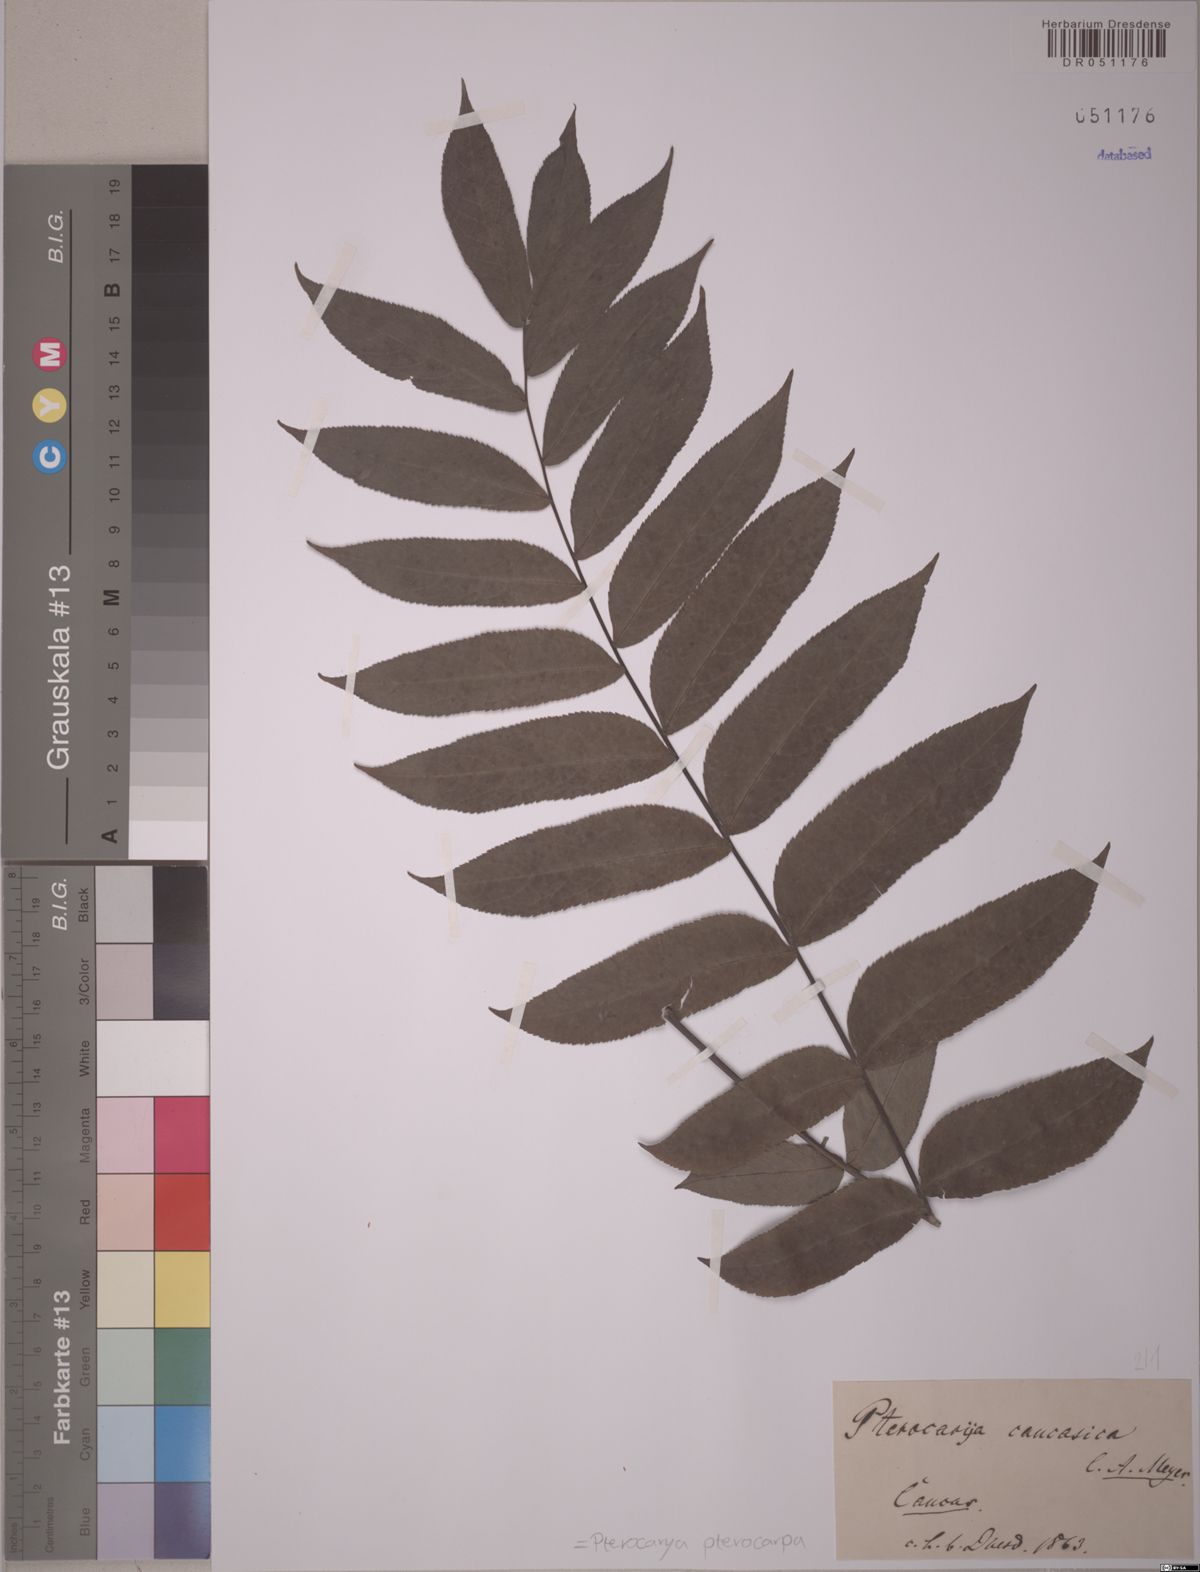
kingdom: Plantae
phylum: Tracheophyta
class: Magnoliopsida
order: Fagales
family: Juglandaceae
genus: Pterocarya
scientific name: Pterocarya fraxinifolia
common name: Caucasian wingnut
